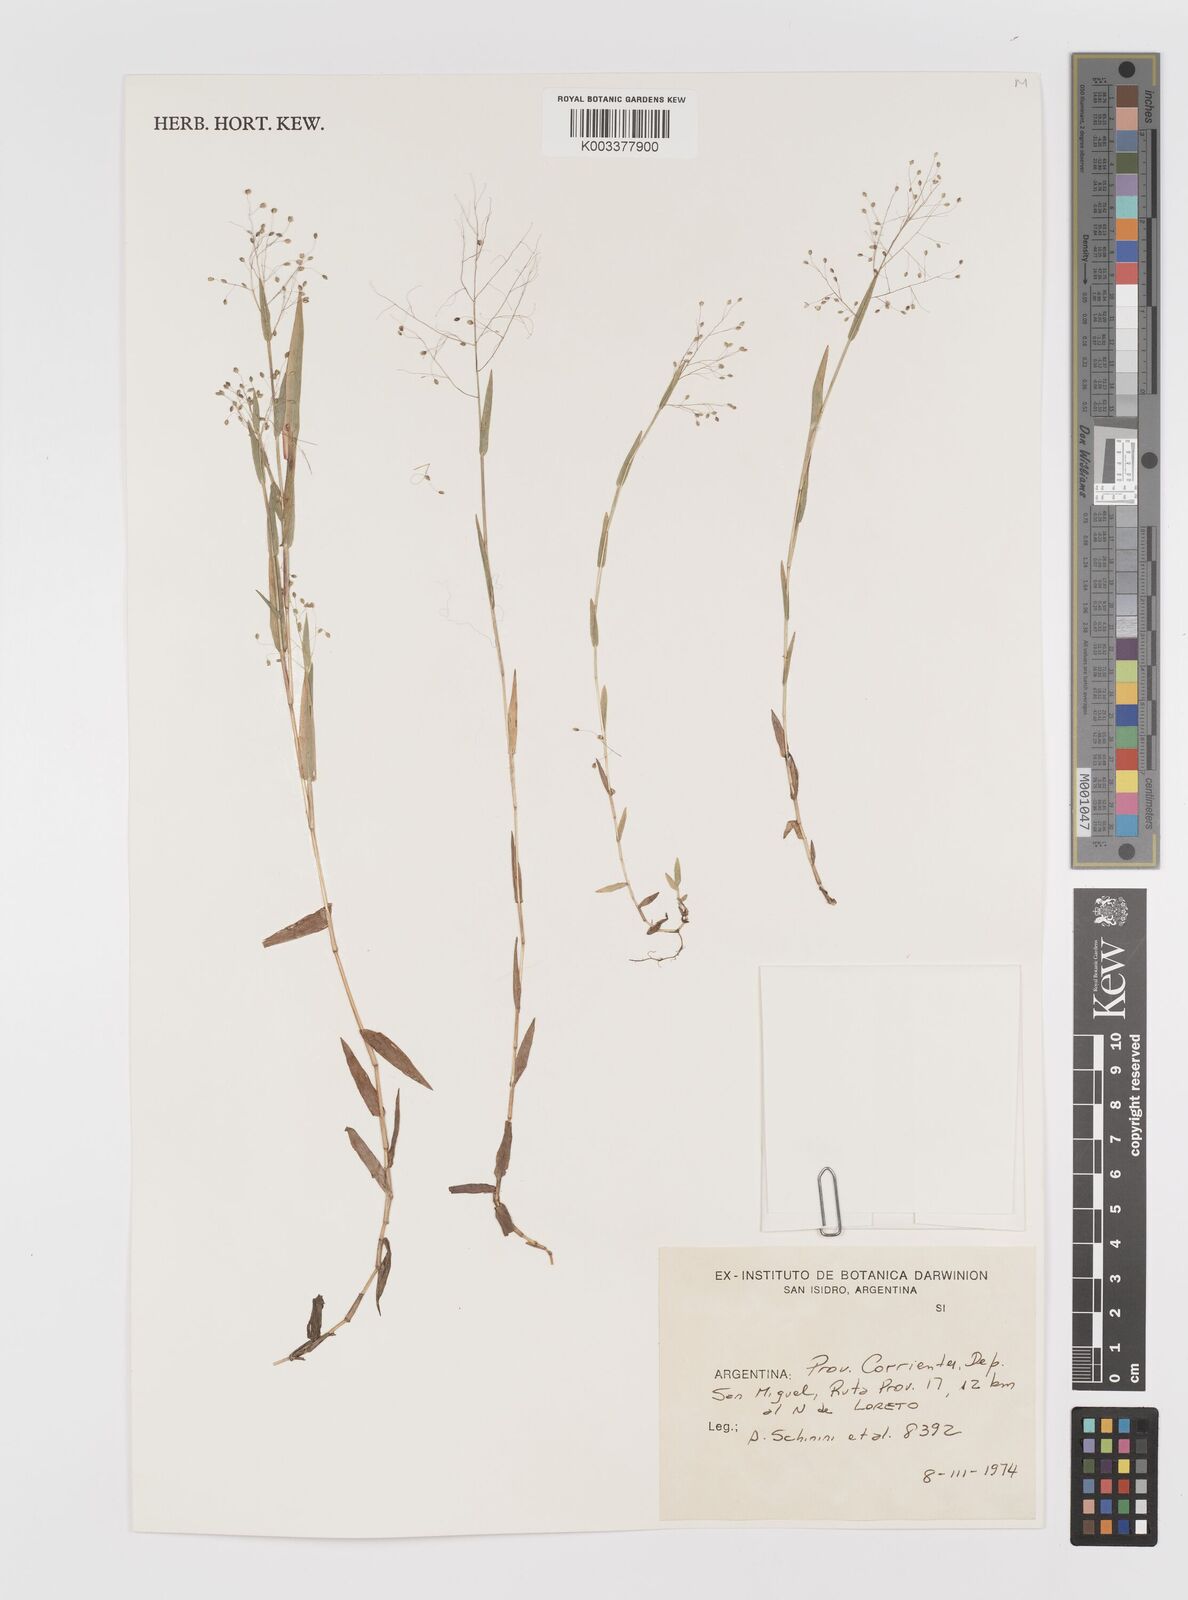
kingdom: Plantae
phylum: Tracheophyta
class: Liliopsida
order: Poales
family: Poaceae
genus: Panicum
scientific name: Panicum
